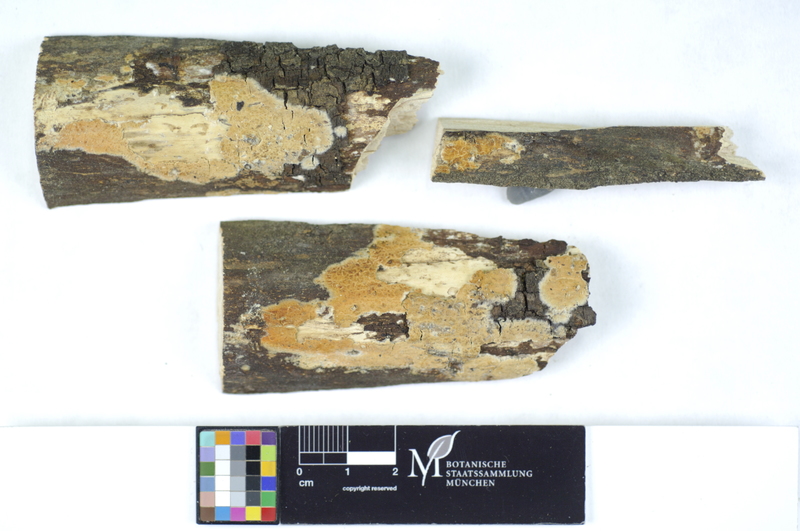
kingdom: Fungi
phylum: Basidiomycota
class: Agaricomycetes
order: Polyporales
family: Phanerochaetaceae
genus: Hyphodermella
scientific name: Hyphodermella corrugata
